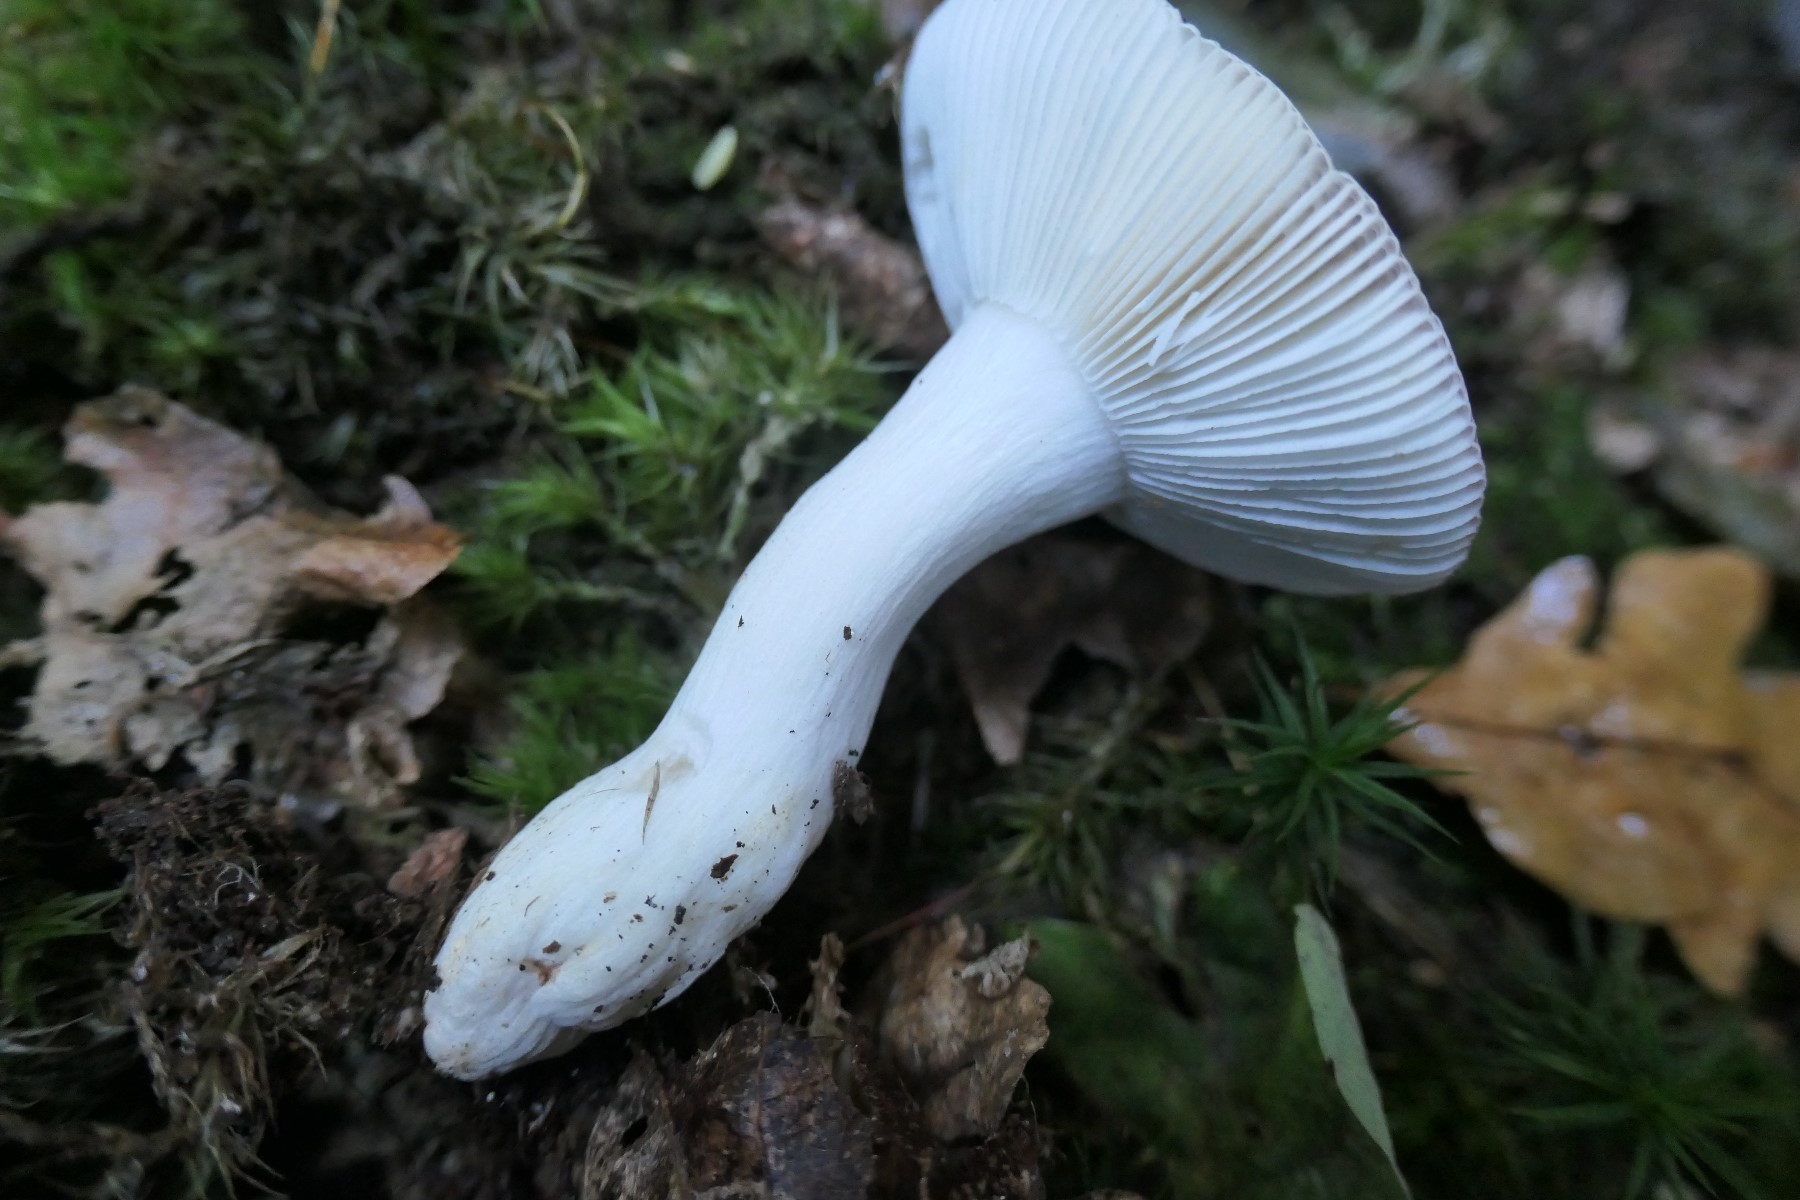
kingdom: Fungi
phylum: Basidiomycota
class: Agaricomycetes
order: Russulales
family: Russulaceae
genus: Russula
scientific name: Russula fragilis
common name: savbladet skørhat
